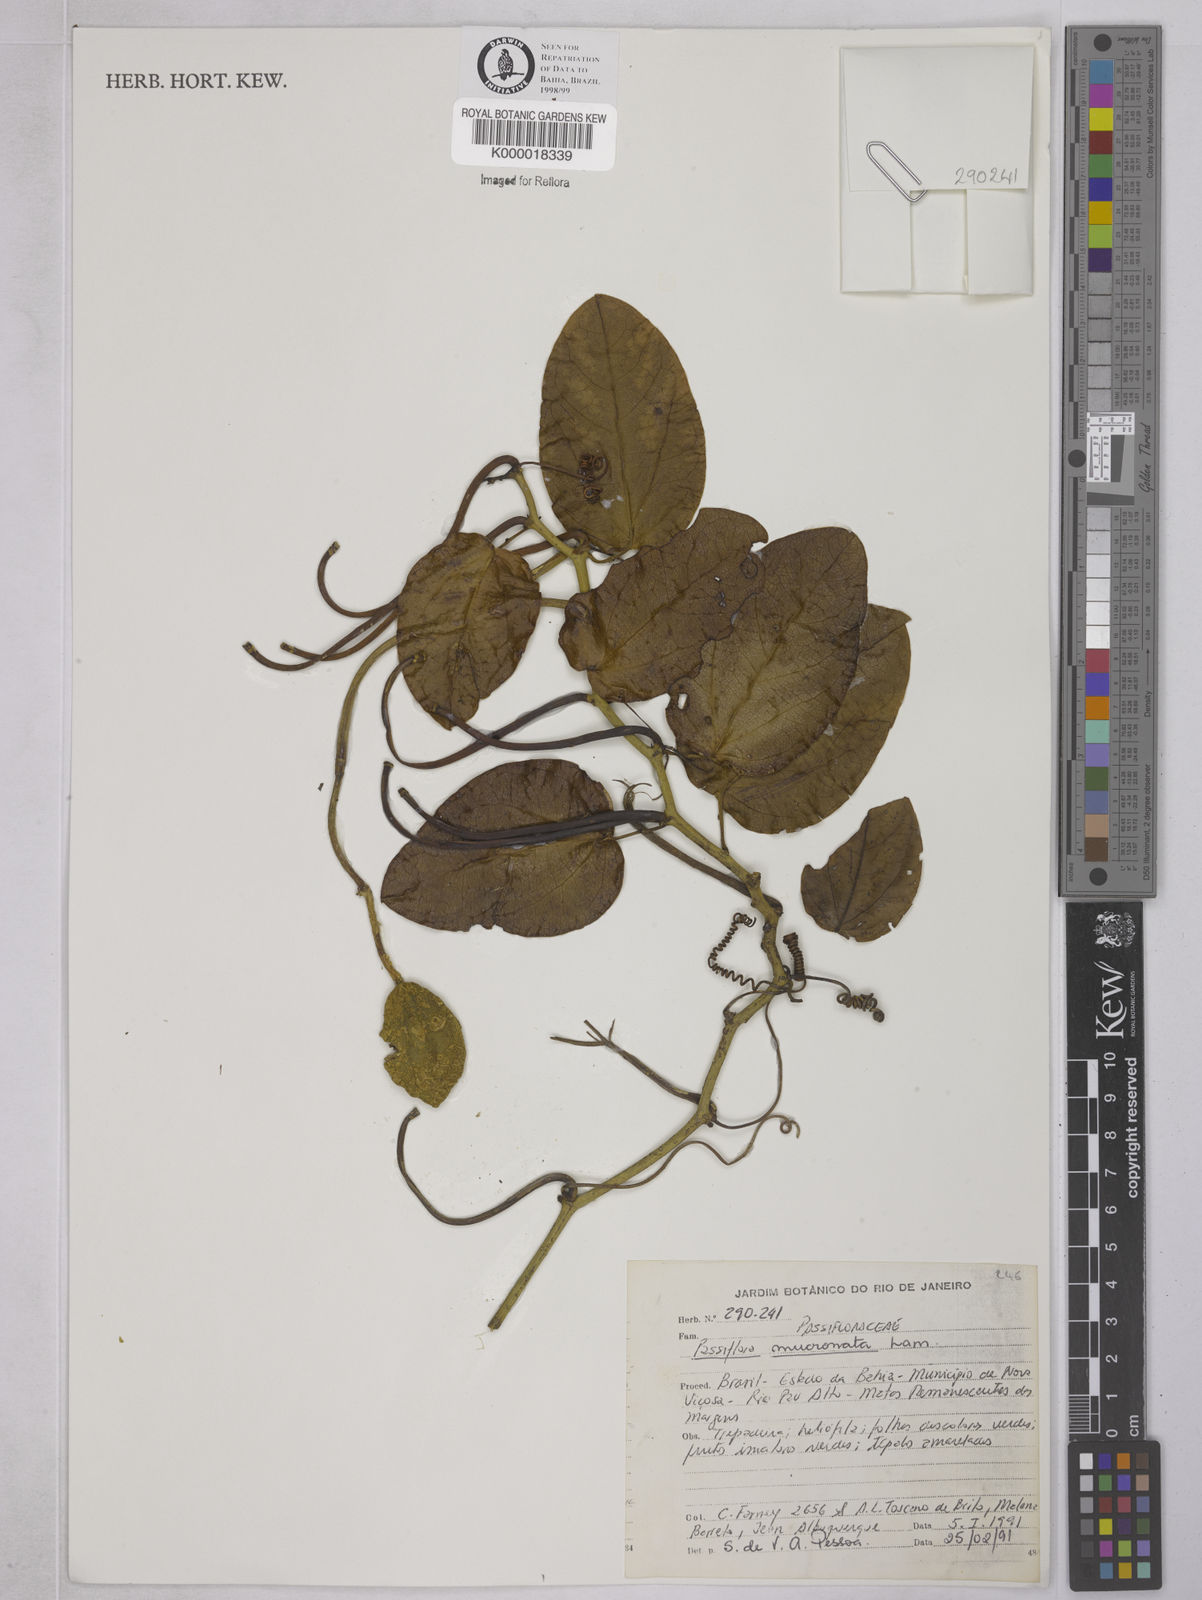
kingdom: Plantae
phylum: Tracheophyta
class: Magnoliopsida
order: Malpighiales
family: Passifloraceae
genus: Passiflora
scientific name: Passiflora mucronata
